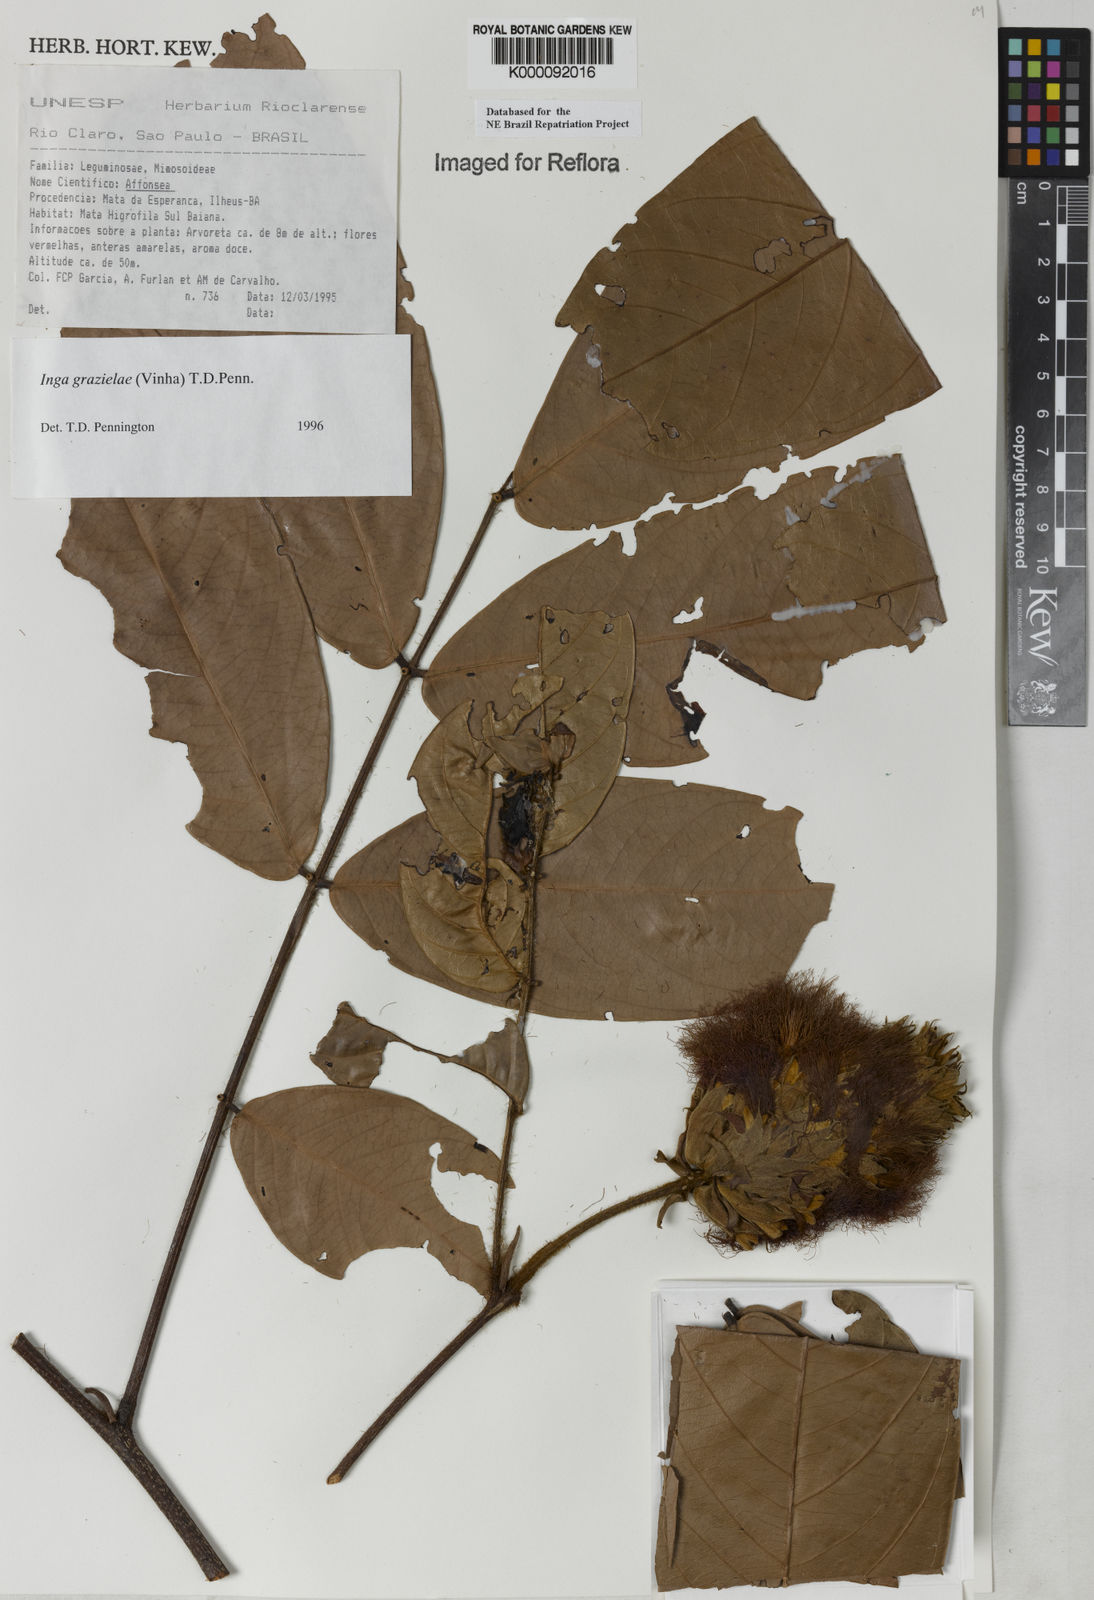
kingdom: Plantae
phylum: Tracheophyta
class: Magnoliopsida
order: Fabales
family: Fabaceae
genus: Inga
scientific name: Inga grazielae
